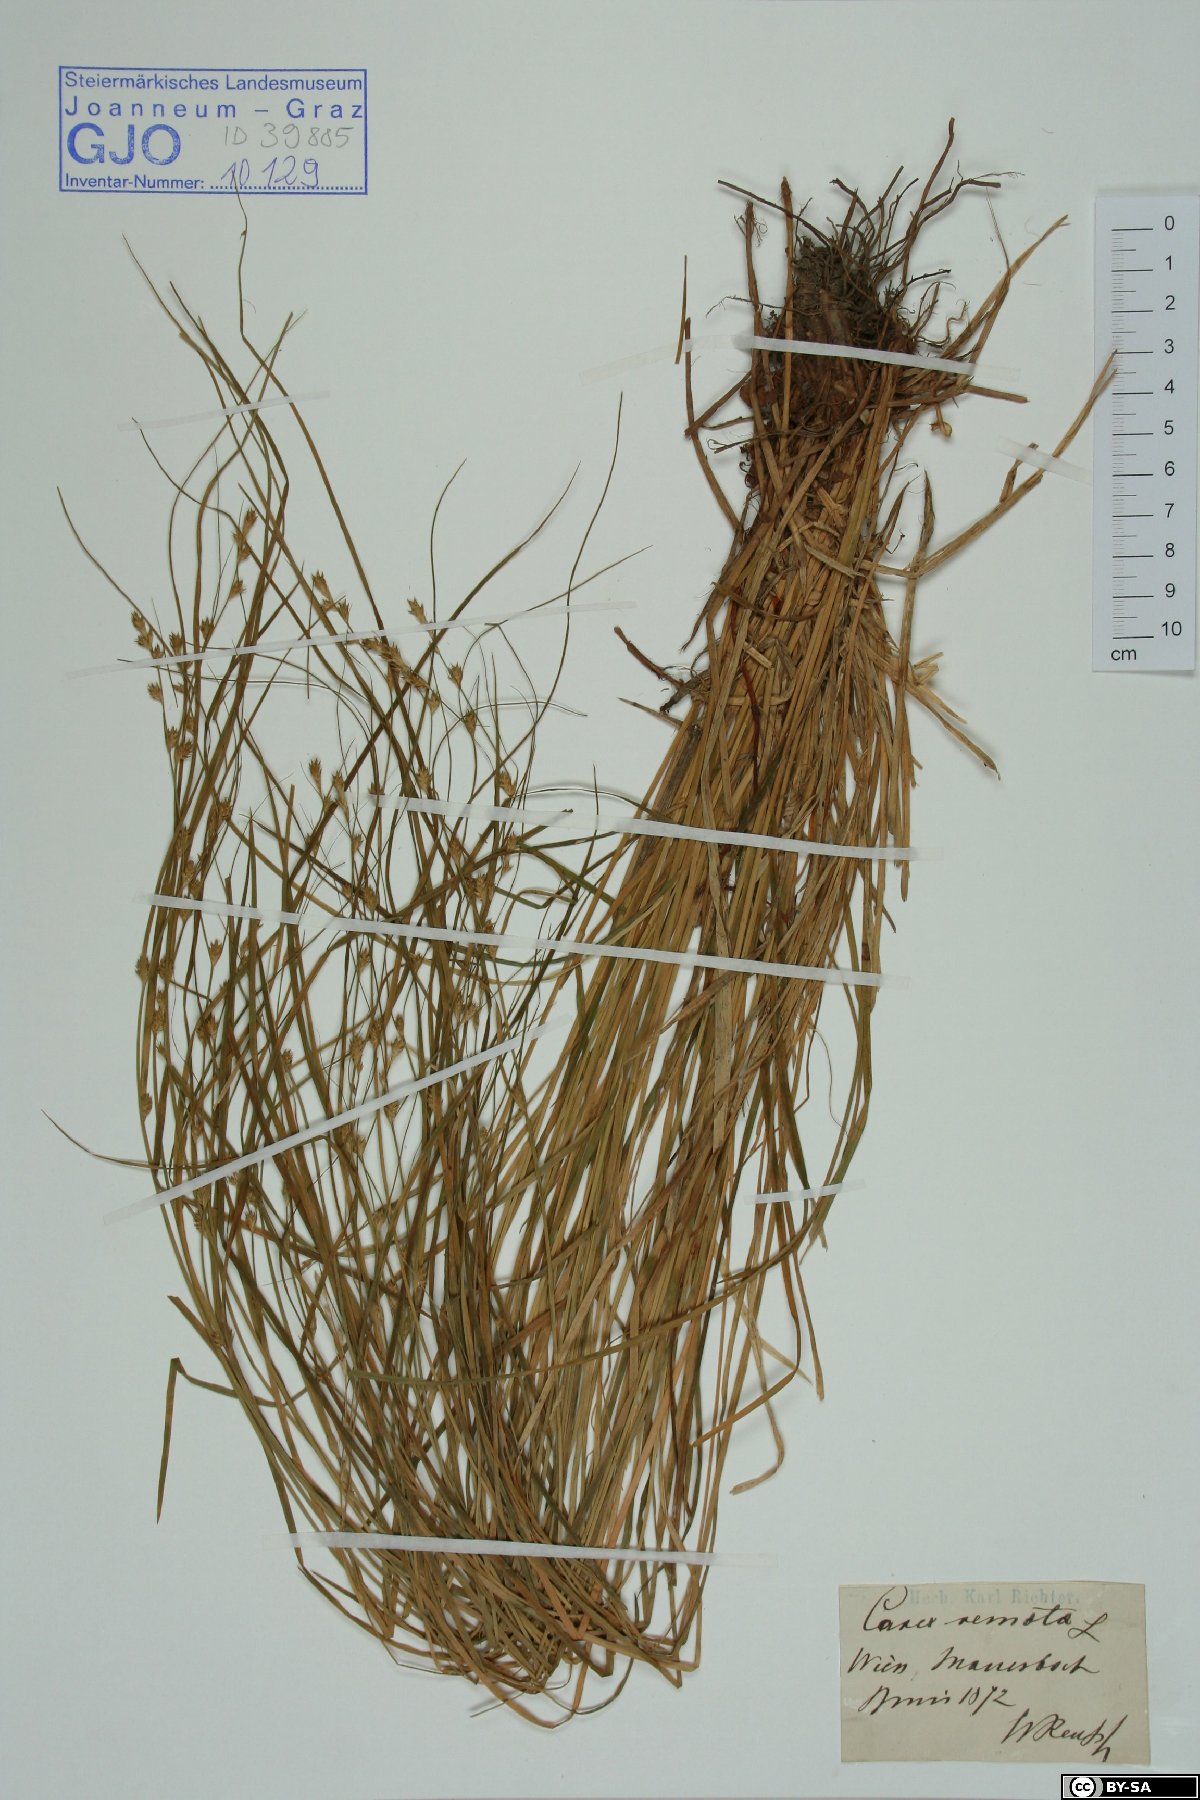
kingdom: Plantae
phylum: Tracheophyta
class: Liliopsida
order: Poales
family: Cyperaceae
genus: Carex
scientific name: Carex remota
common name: Remote sedge
